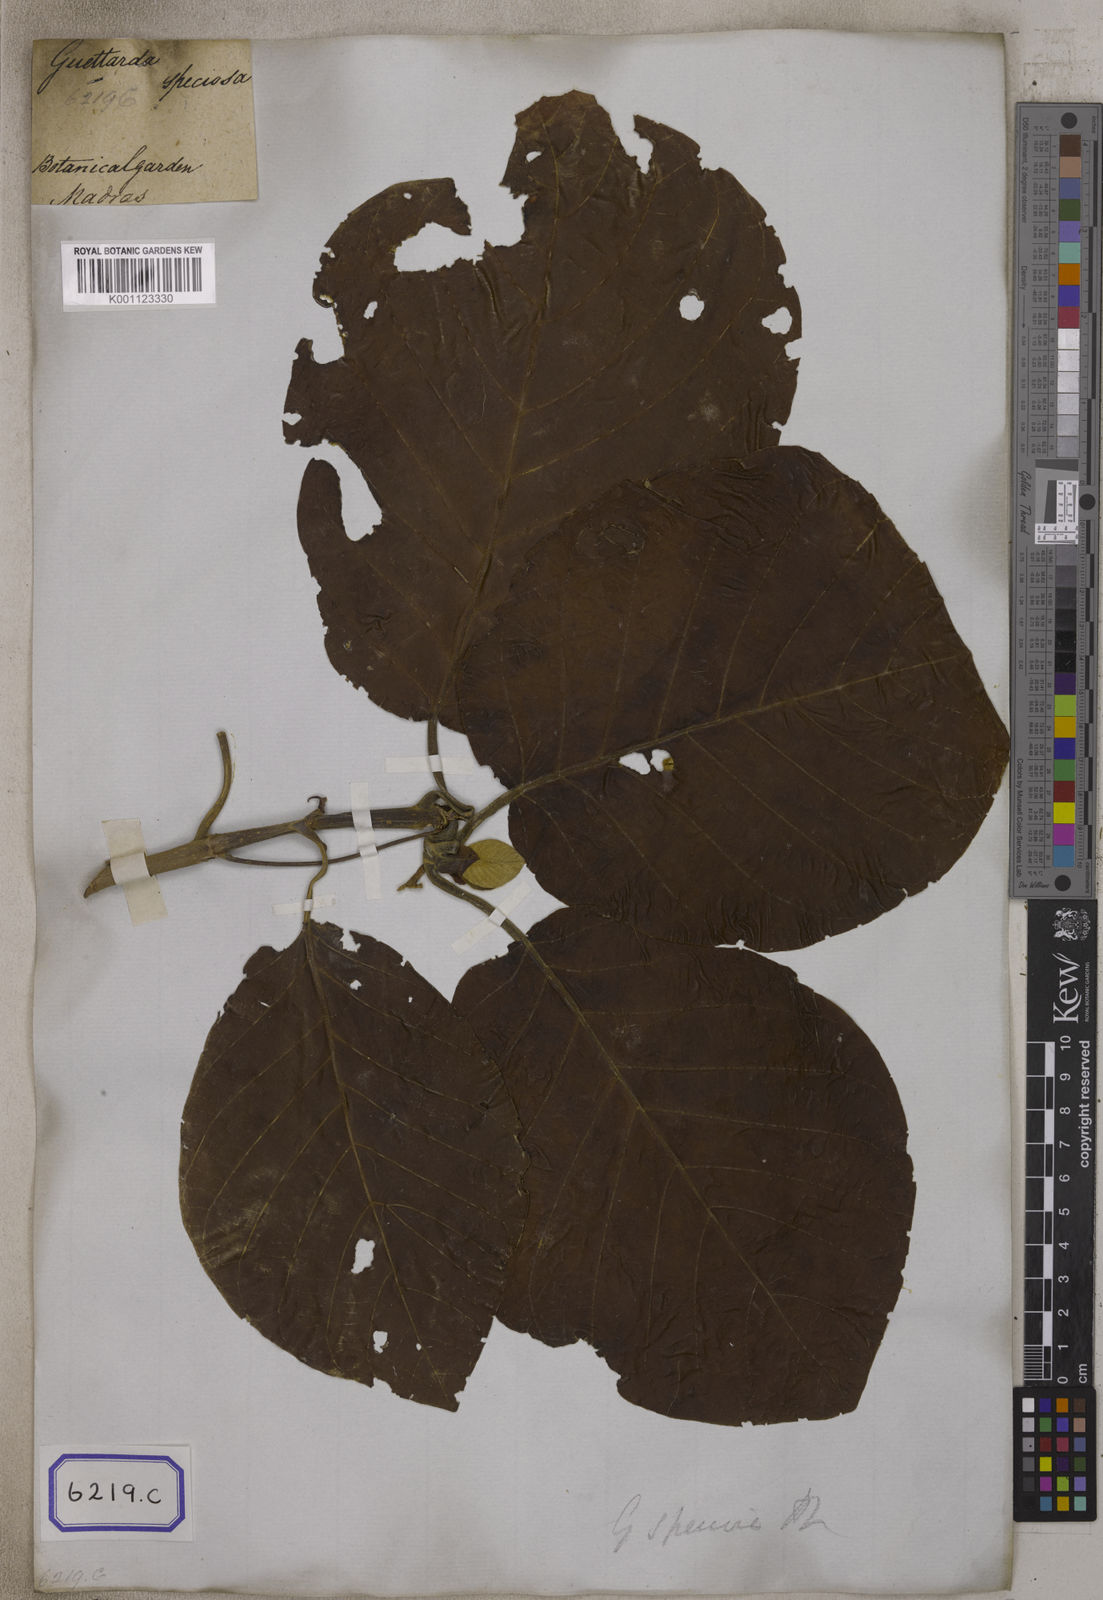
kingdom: Plantae
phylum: Tracheophyta
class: Magnoliopsida
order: Gentianales
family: Rubiaceae
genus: Guettarda
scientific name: Guettarda speciosa
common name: Sea randa
